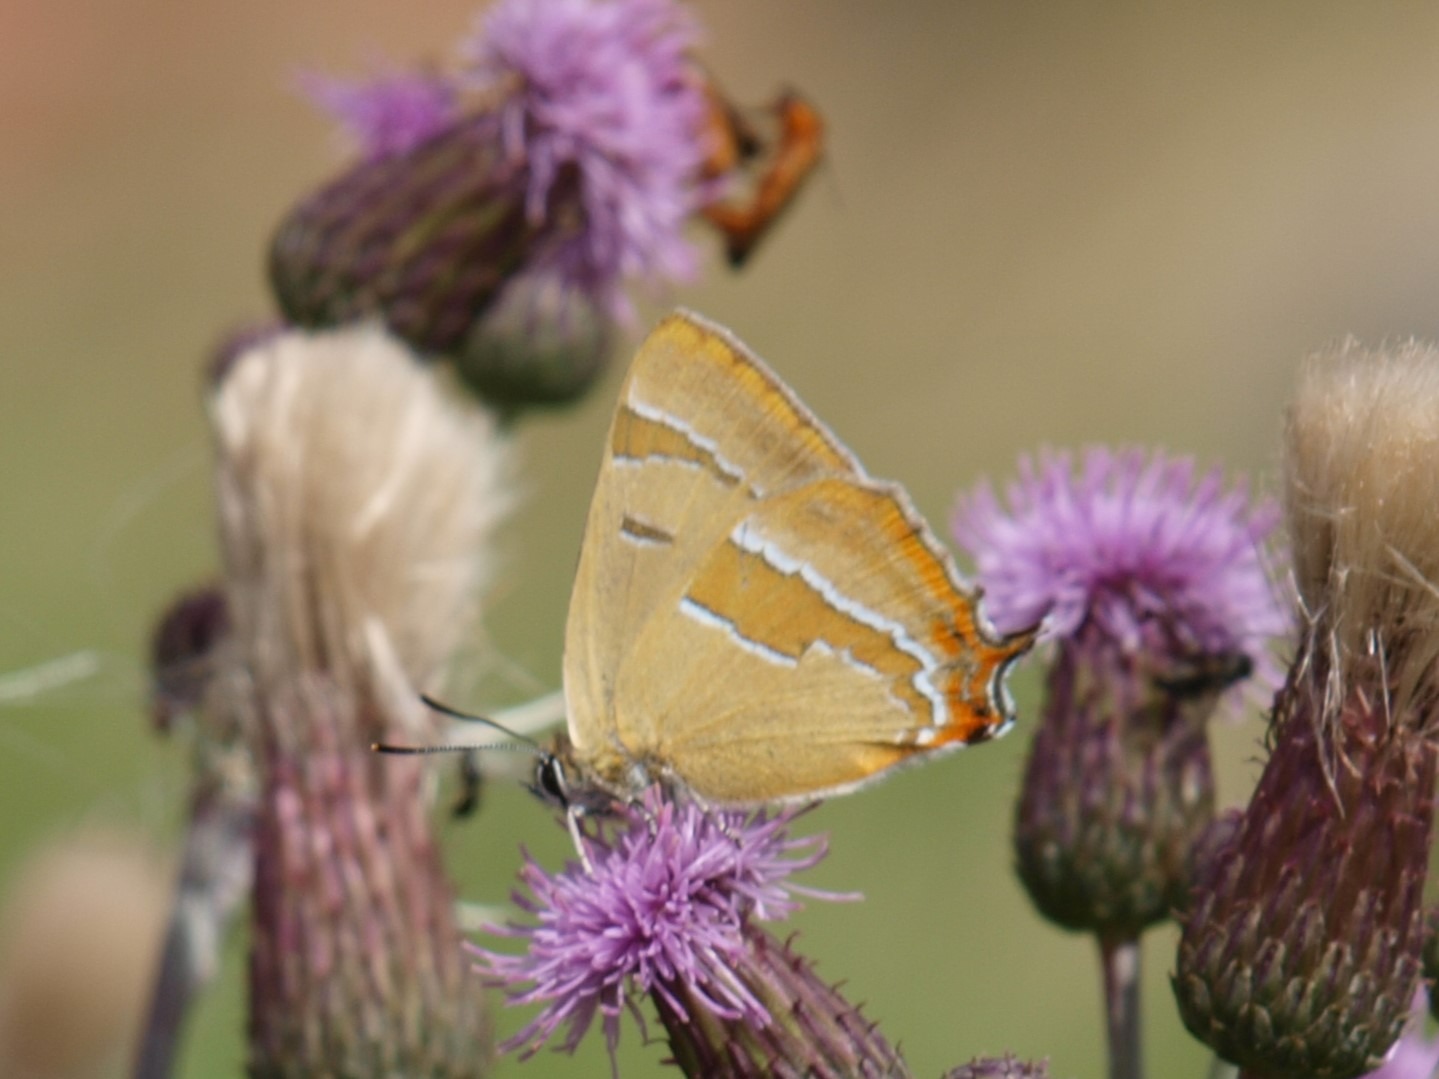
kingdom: Animalia
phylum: Arthropoda
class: Insecta
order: Lepidoptera
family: Lycaenidae
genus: Thecla
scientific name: Thecla betulae
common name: Guldhale
